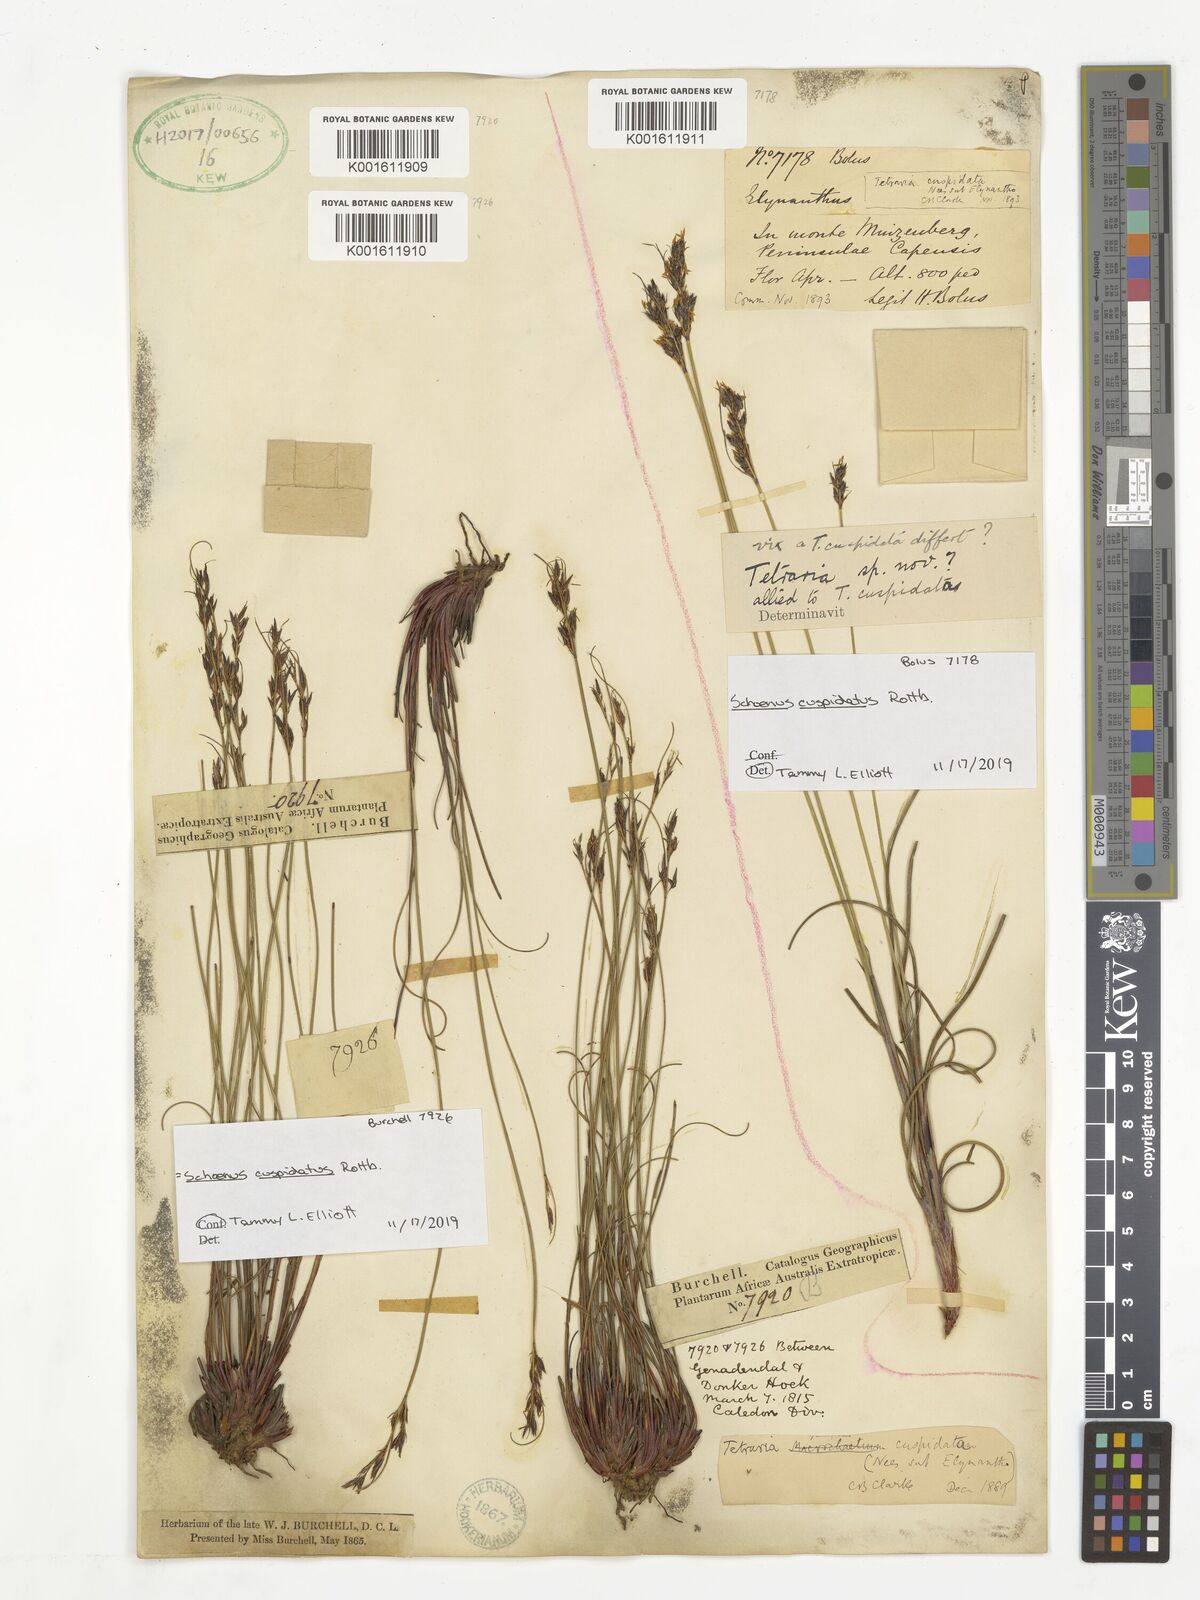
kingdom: Plantae
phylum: Tracheophyta
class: Liliopsida
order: Poales
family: Cyperaceae
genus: Schoenus
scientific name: Schoenus cuspidatus
